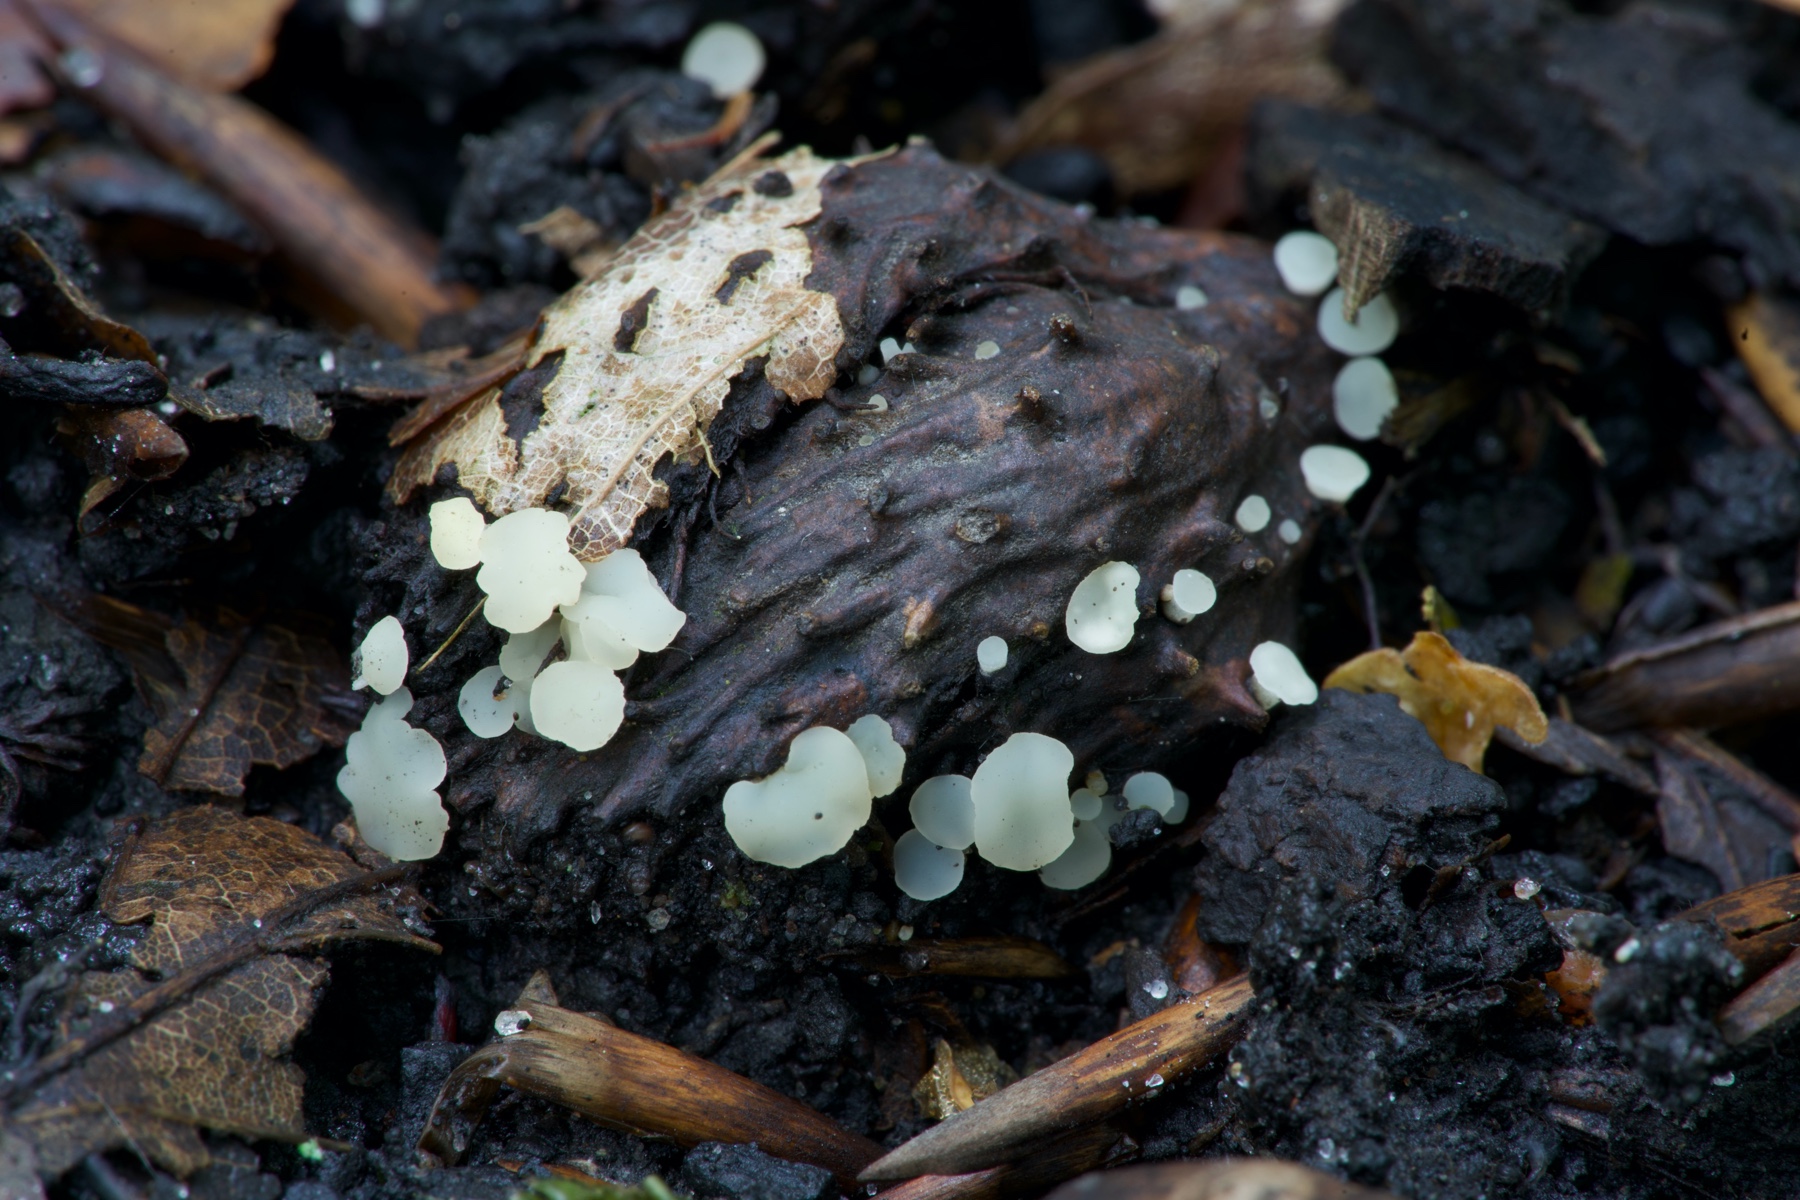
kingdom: Fungi
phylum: Ascomycota
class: Leotiomycetes
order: Helotiales
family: Helotiaceae
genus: Hymenoscyphus
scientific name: Hymenoscyphus fagineus
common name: vellugtende stilkskive
